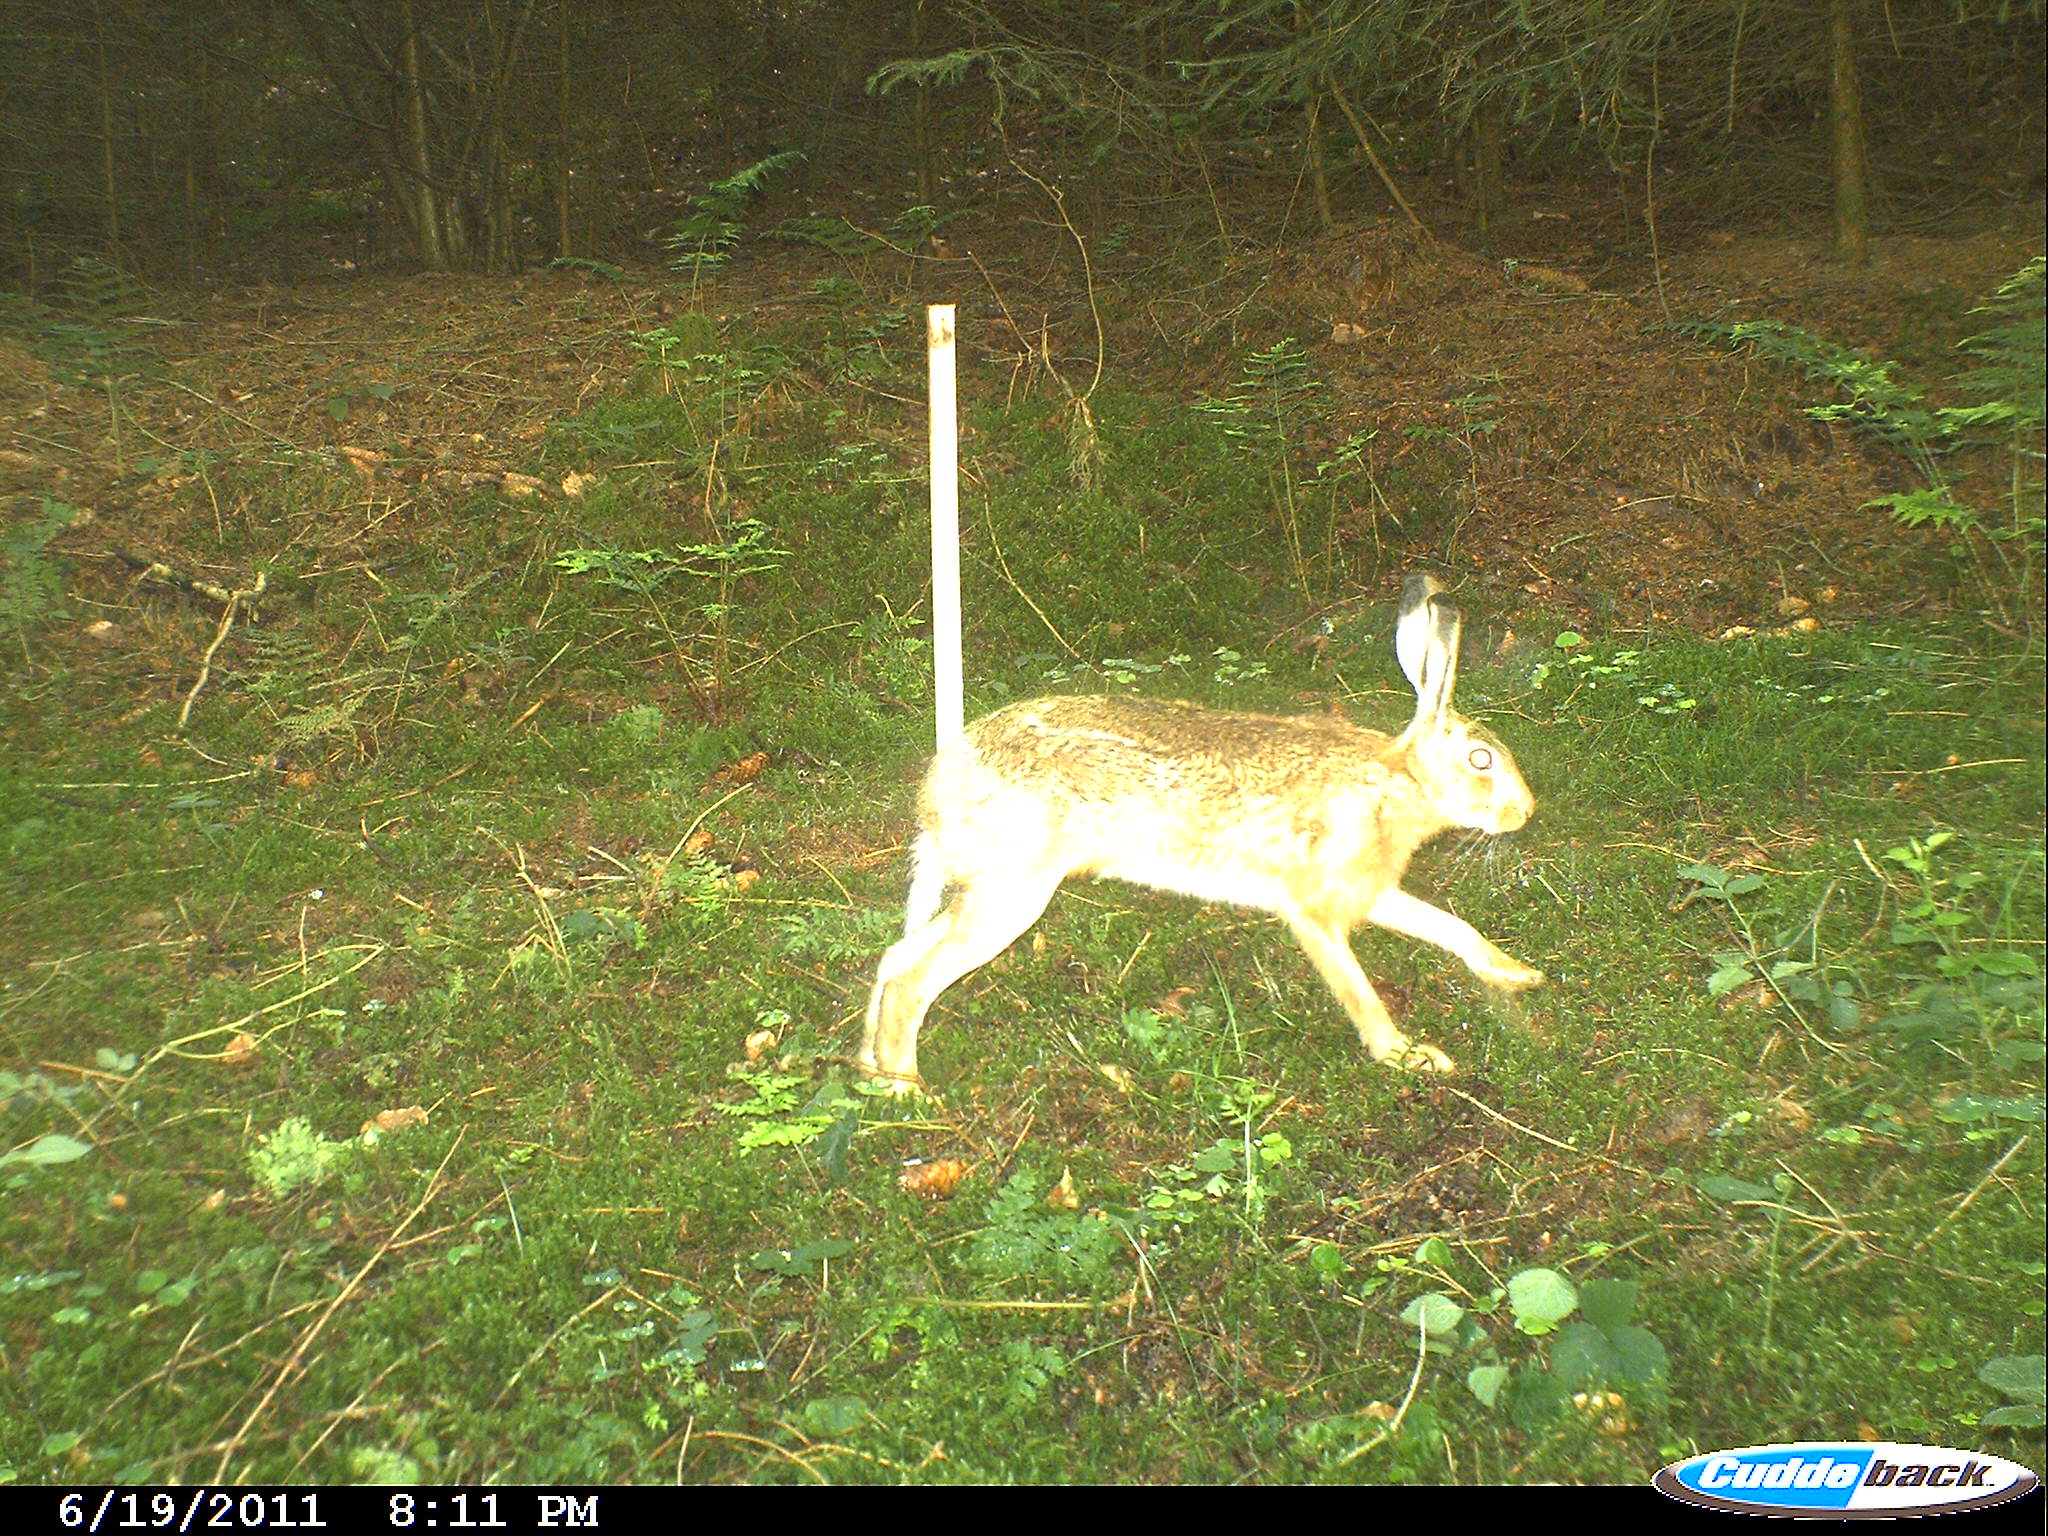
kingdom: Animalia
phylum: Chordata
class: Mammalia
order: Lagomorpha
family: Leporidae
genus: Lepus
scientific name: Lepus europaeus
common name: European hare
